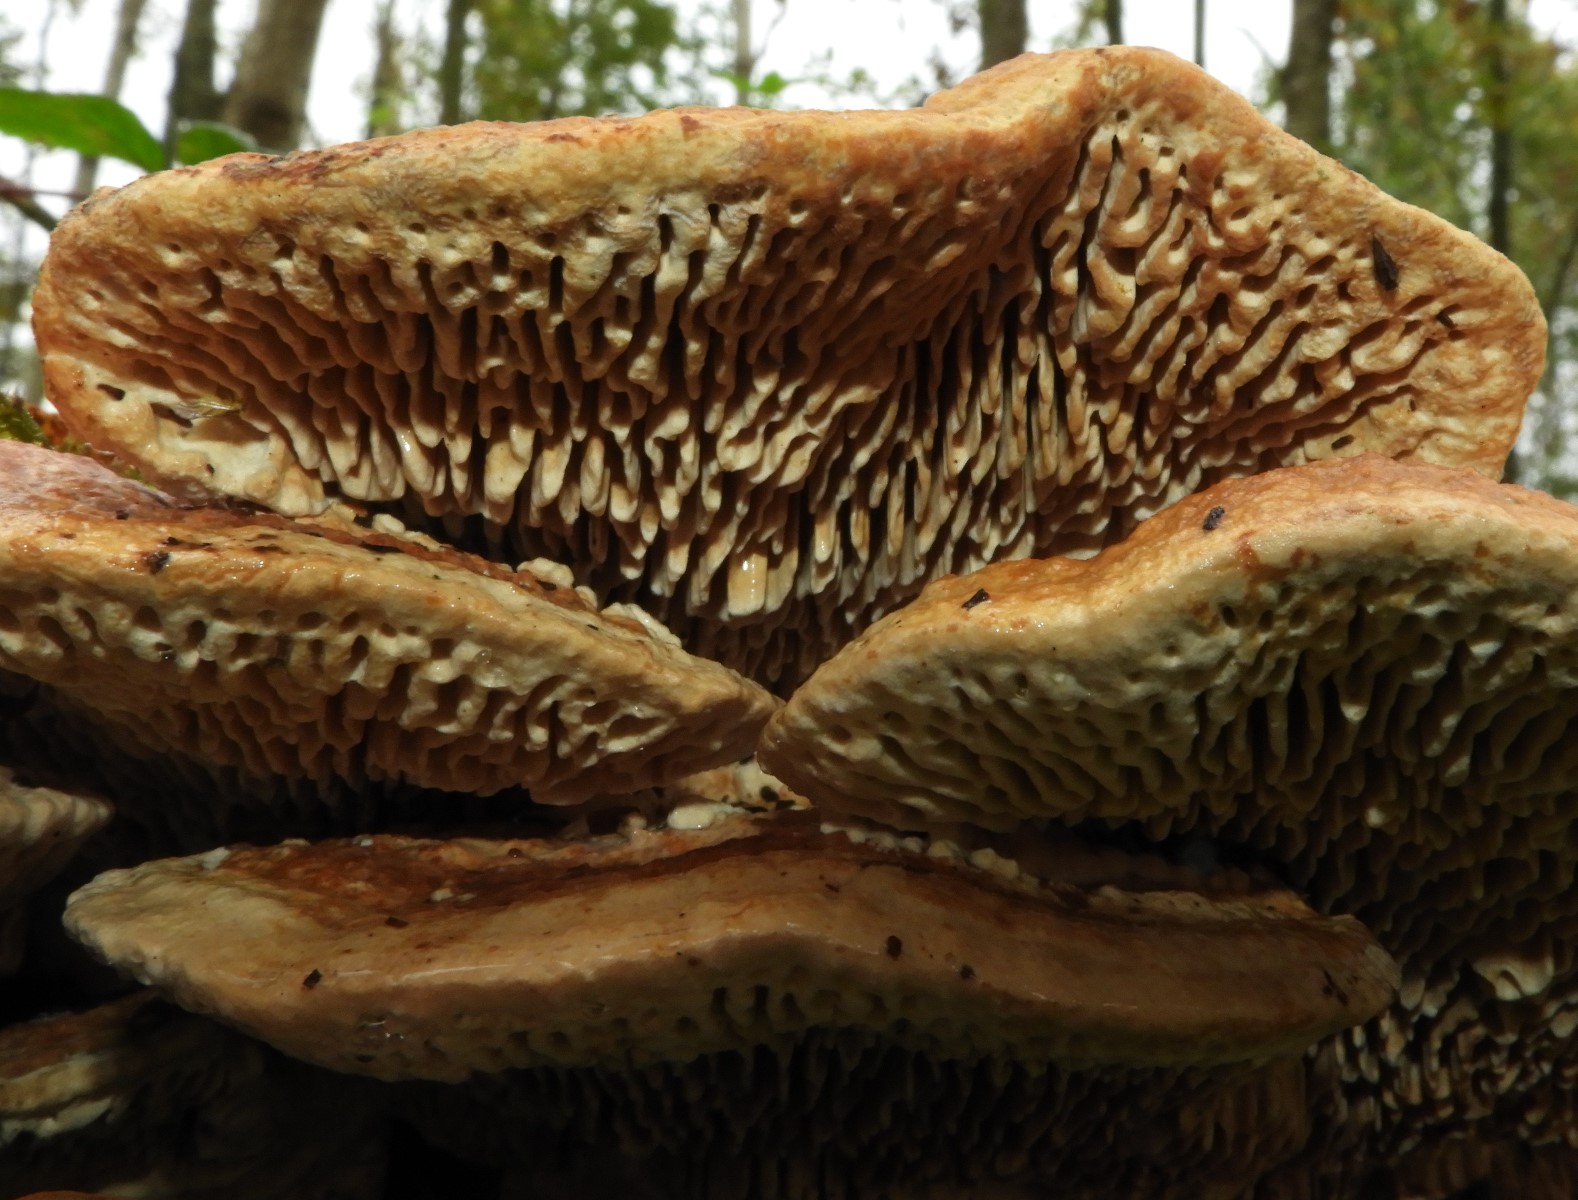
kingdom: Fungi
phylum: Basidiomycota
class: Agaricomycetes
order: Polyporales
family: Fomitopsidaceae
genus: Daedalea
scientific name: Daedalea quercina
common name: ege-labyrintsvamp
